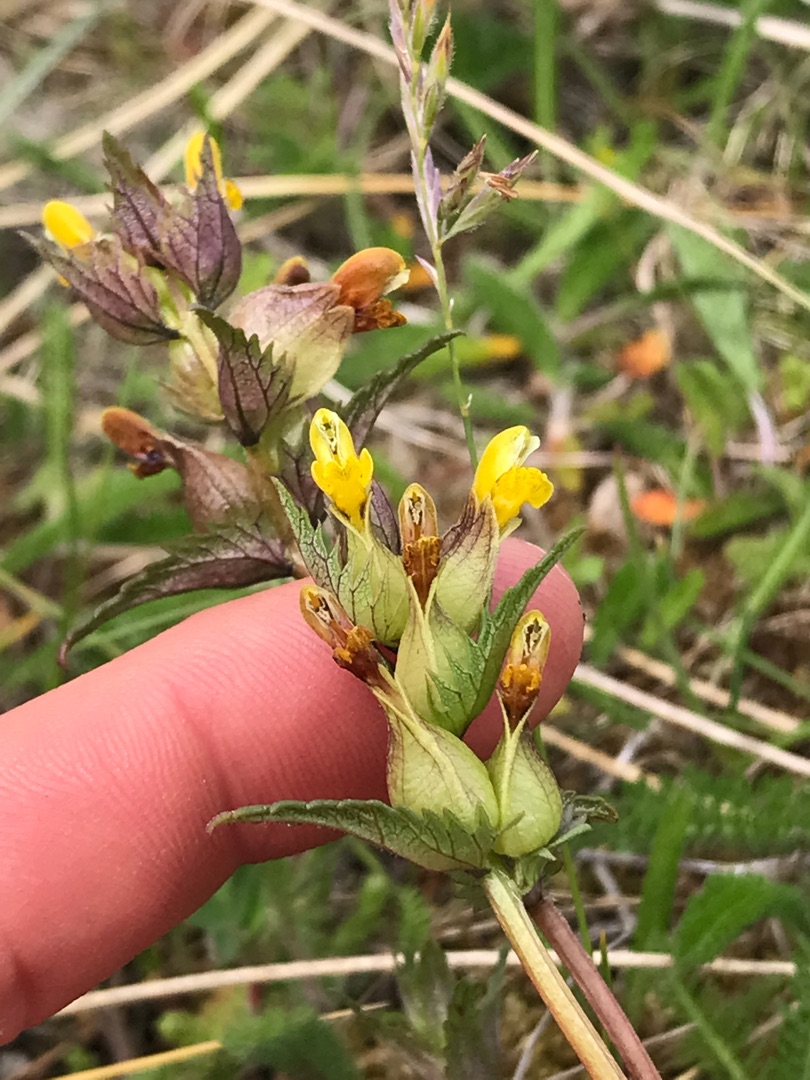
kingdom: Plantae
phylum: Tracheophyta
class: Magnoliopsida
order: Lamiales
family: Orobanchaceae
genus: Rhinanthus
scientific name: Rhinanthus minor
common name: Liden skjaller
